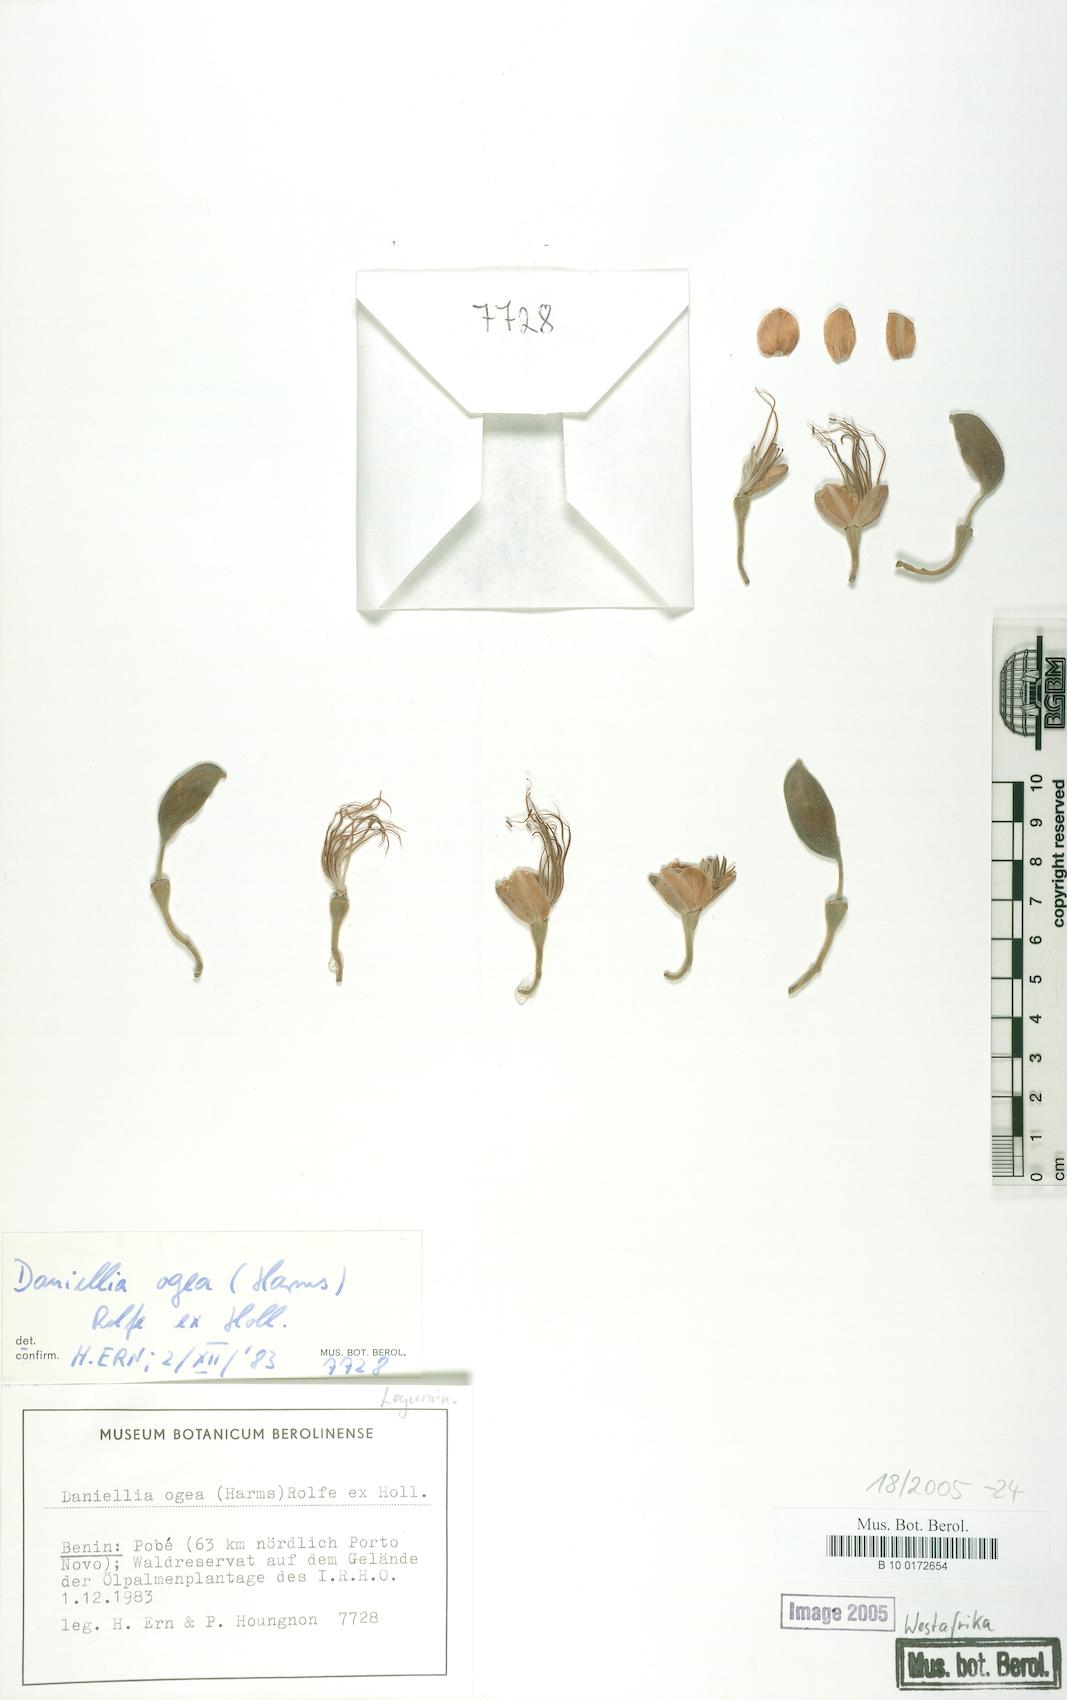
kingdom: Plantae
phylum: Tracheophyta
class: Magnoliopsida
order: Fabales
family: Fabaceae
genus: Daniellia
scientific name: Daniellia ogea
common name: Accra copal
